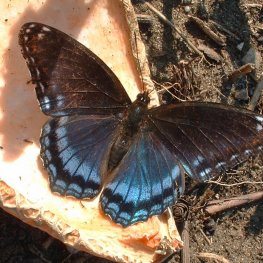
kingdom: Animalia
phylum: Arthropoda
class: Insecta
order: Lepidoptera
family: Nymphalidae
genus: Limenitis
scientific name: Limenitis arthemis
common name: Red-spotted Admiral
